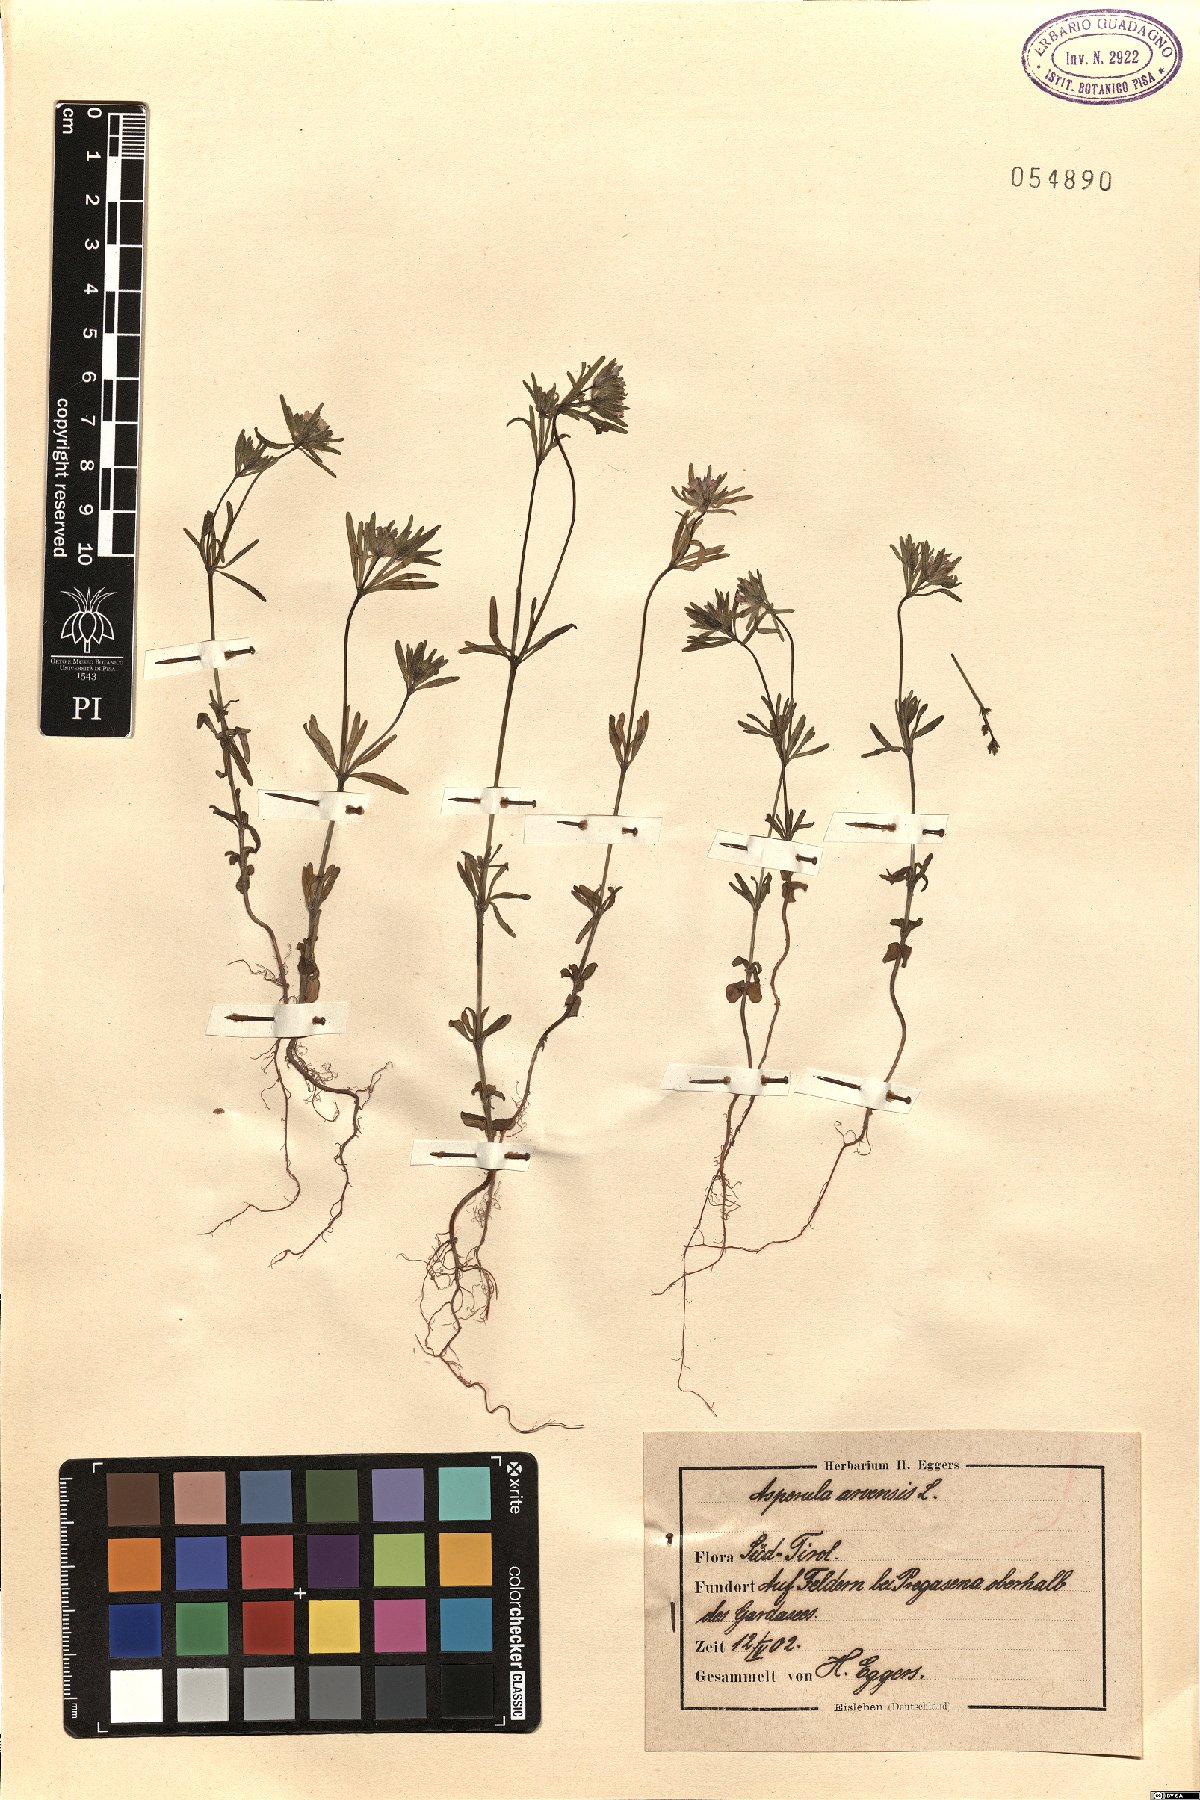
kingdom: Plantae
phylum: Tracheophyta
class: Magnoliopsida
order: Gentianales
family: Rubiaceae
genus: Asperula
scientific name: Asperula arvensis
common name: Blue woodruff
